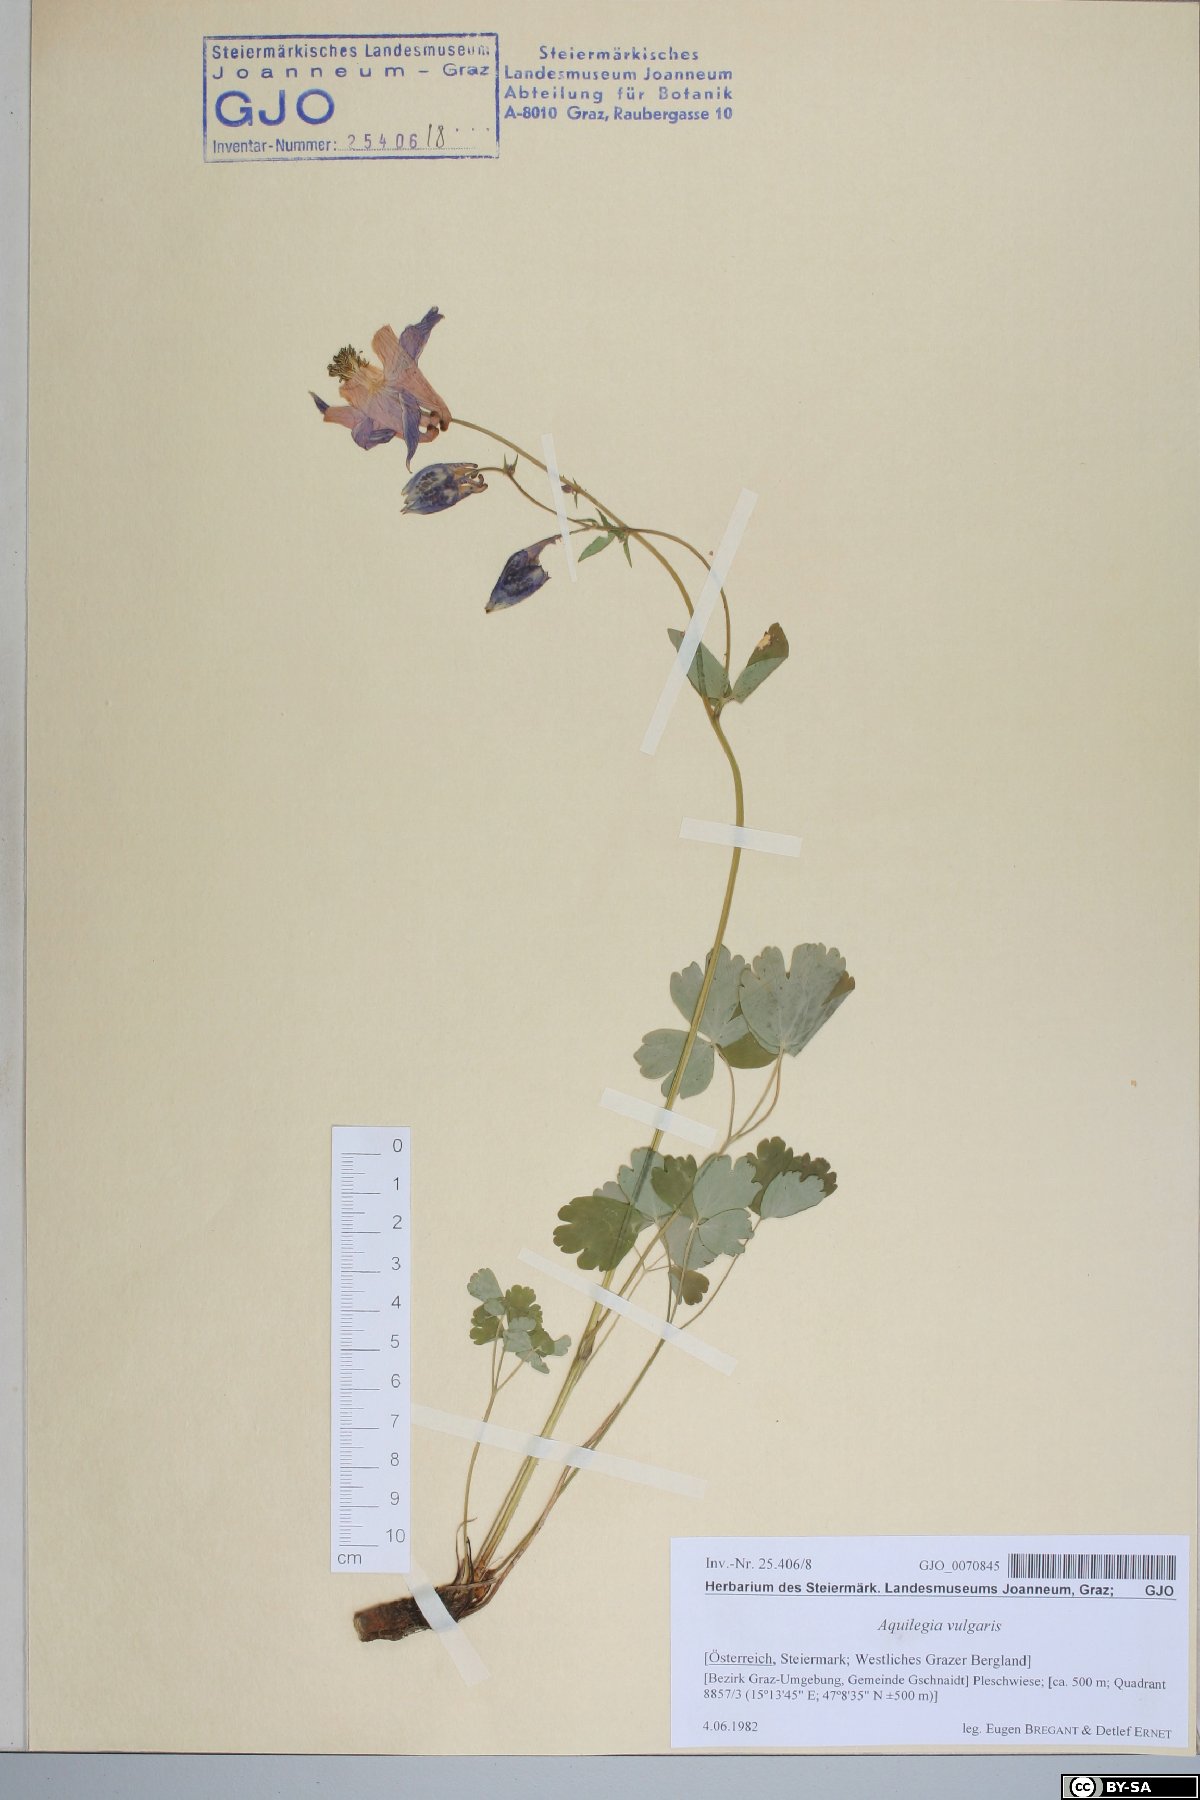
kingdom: Plantae
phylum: Tracheophyta
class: Magnoliopsida
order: Ranunculales
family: Ranunculaceae
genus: Aquilegia
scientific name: Aquilegia vulgaris
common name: Columbine
